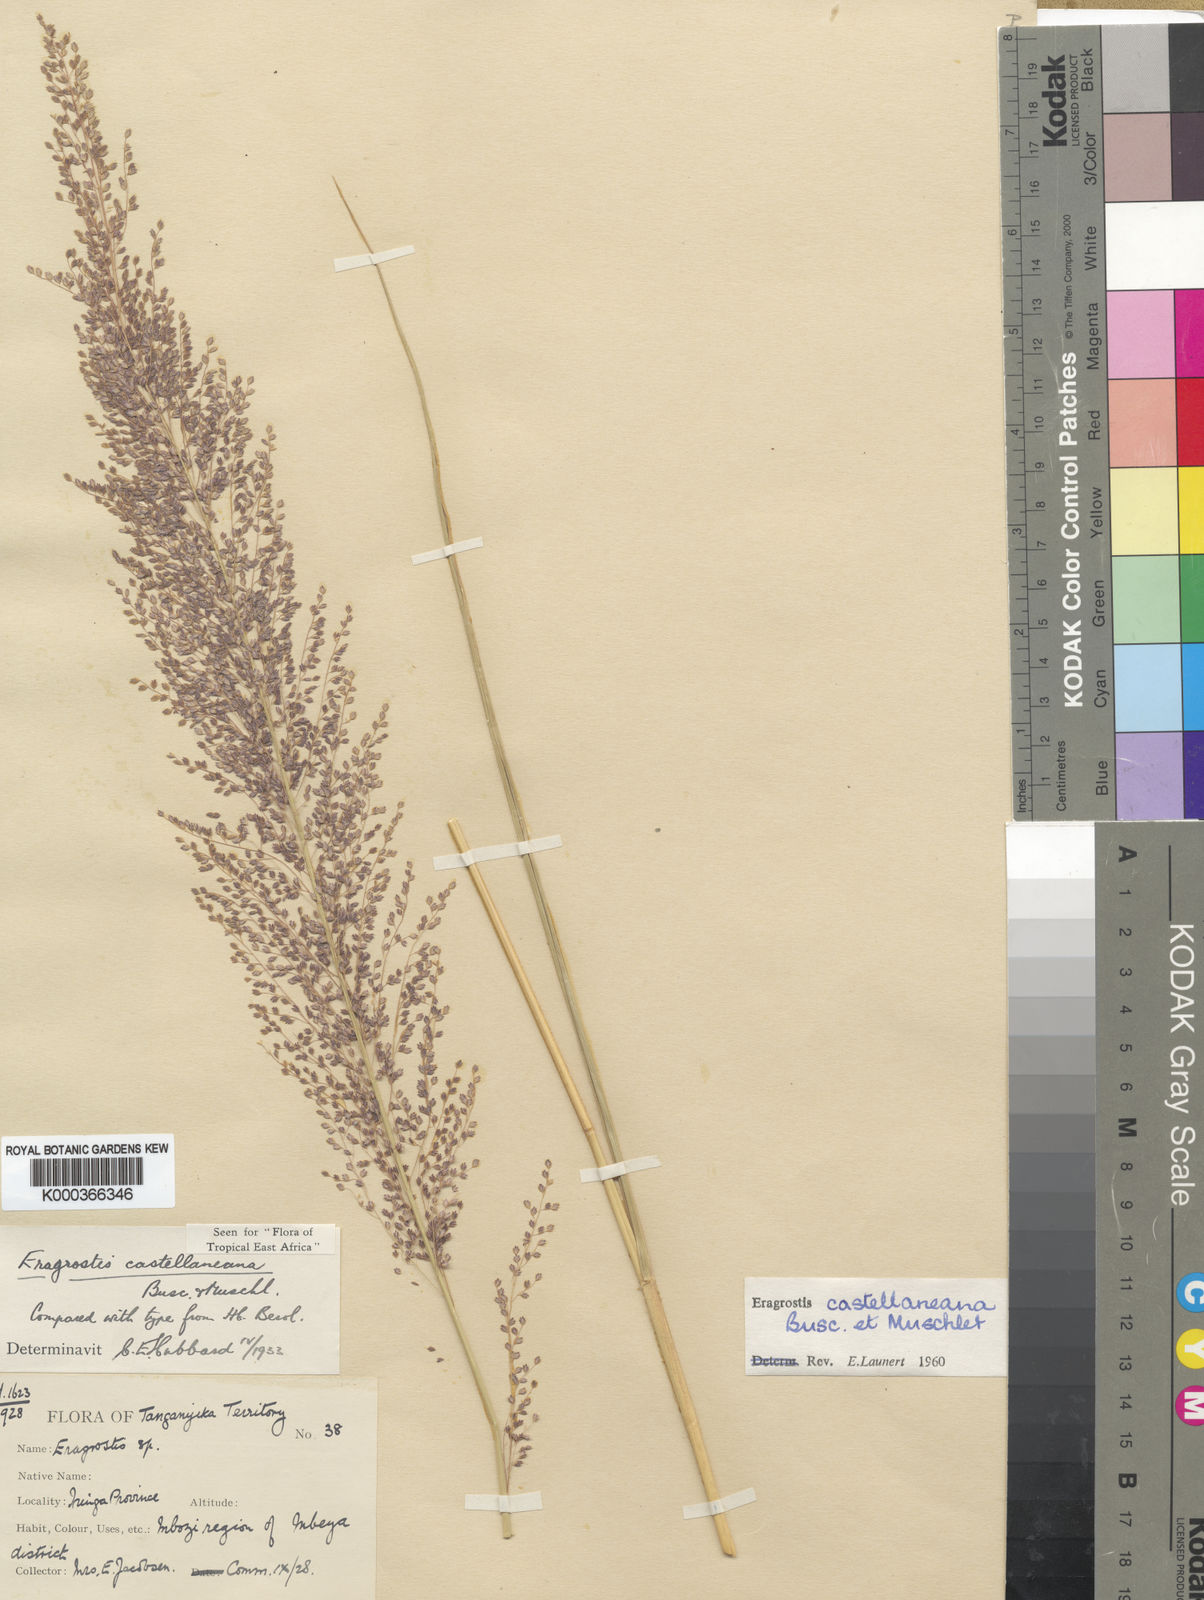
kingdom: Plantae
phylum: Tracheophyta
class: Liliopsida
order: Poales
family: Poaceae
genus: Eragrostis
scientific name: Eragrostis castellaneana
